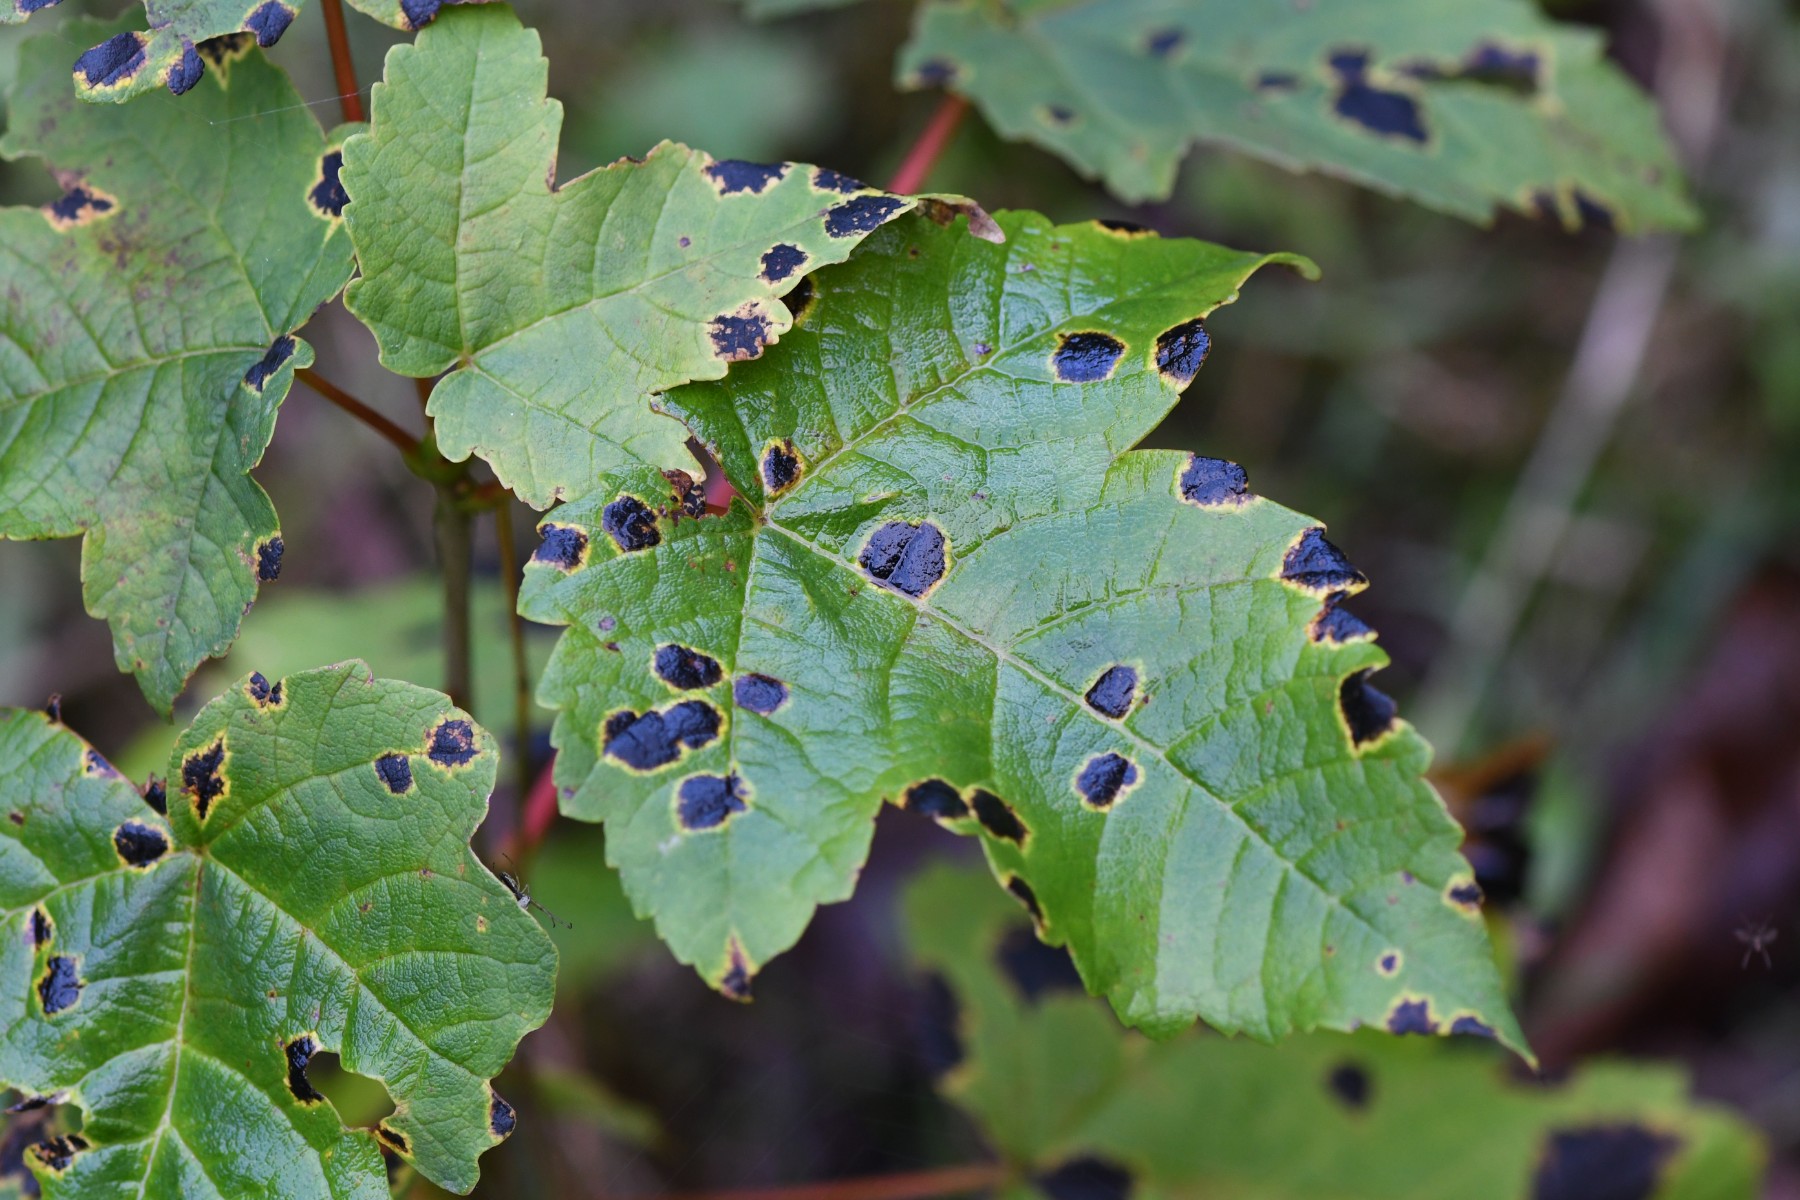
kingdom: Fungi
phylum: Ascomycota
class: Leotiomycetes
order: Rhytismatales
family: Rhytismataceae
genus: Rhytisma
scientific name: Rhytisma acerinum
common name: ahorn-rynkeplet
